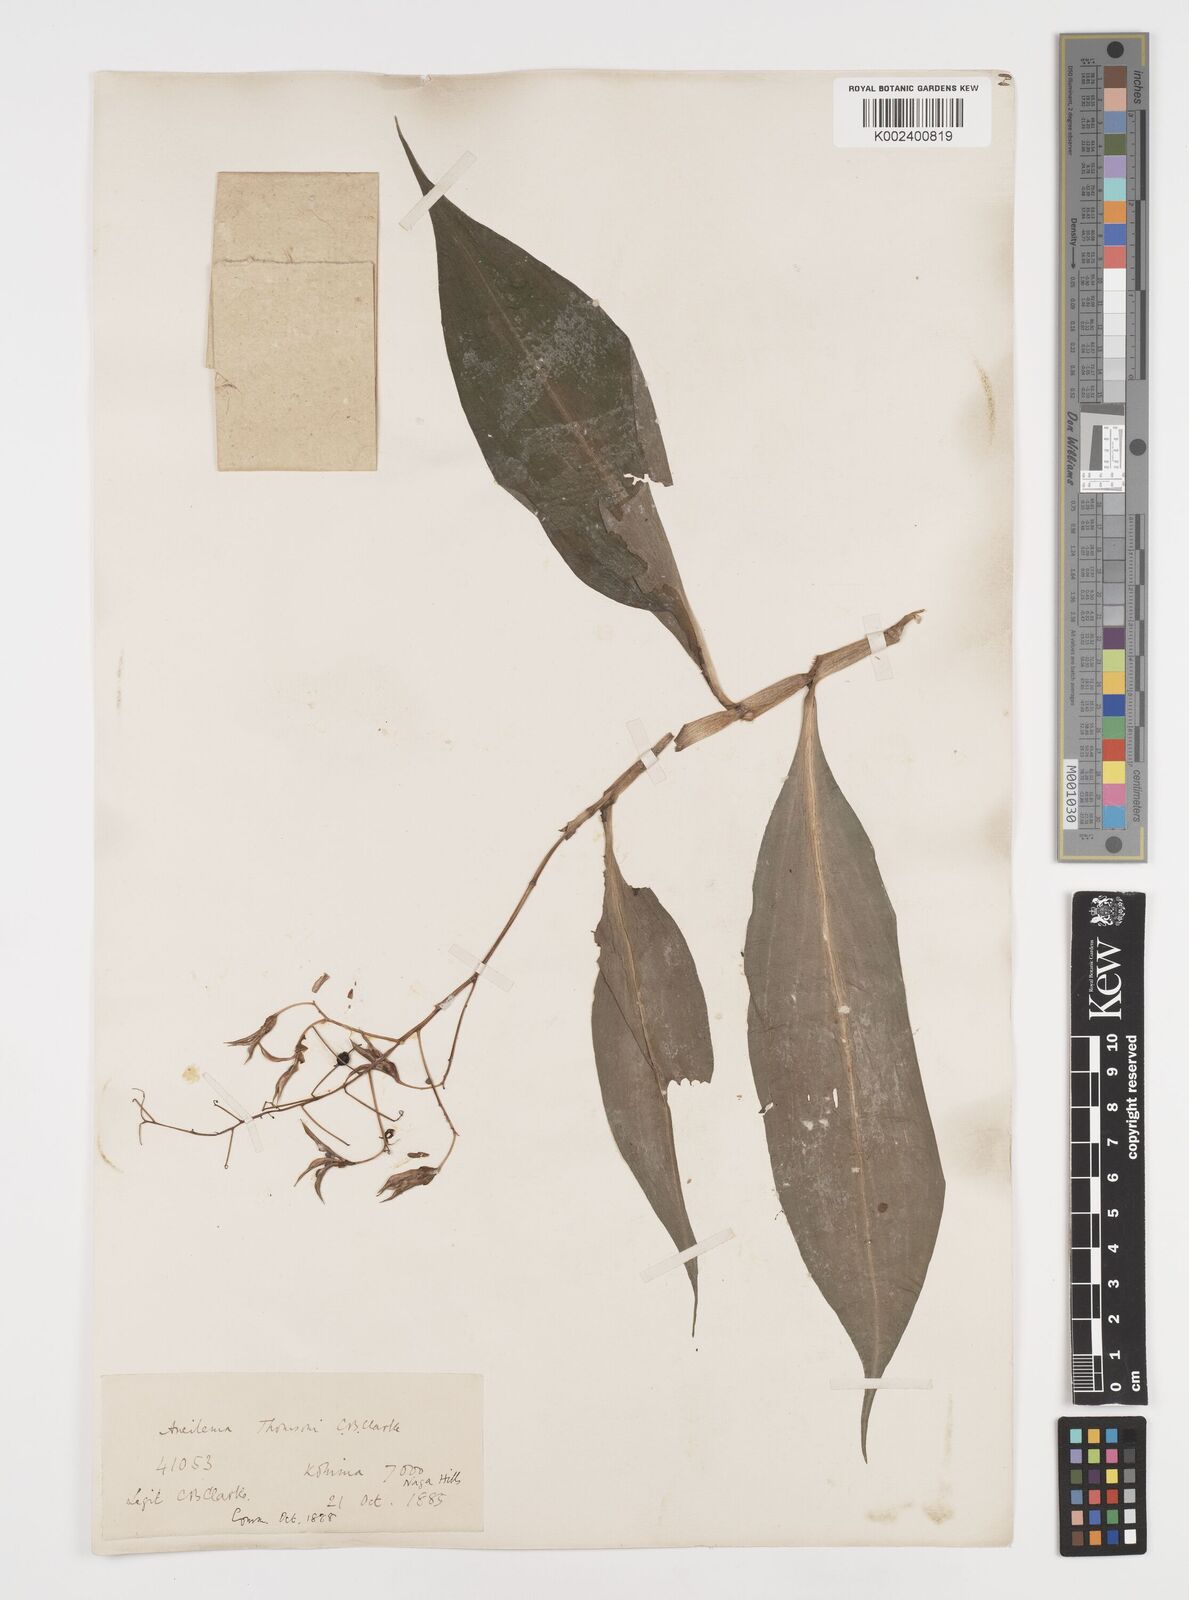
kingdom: Plantae
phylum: Tracheophyta
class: Liliopsida
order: Commelinales
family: Commelinaceae
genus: Tricarpelema
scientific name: Tricarpelema giganteum
